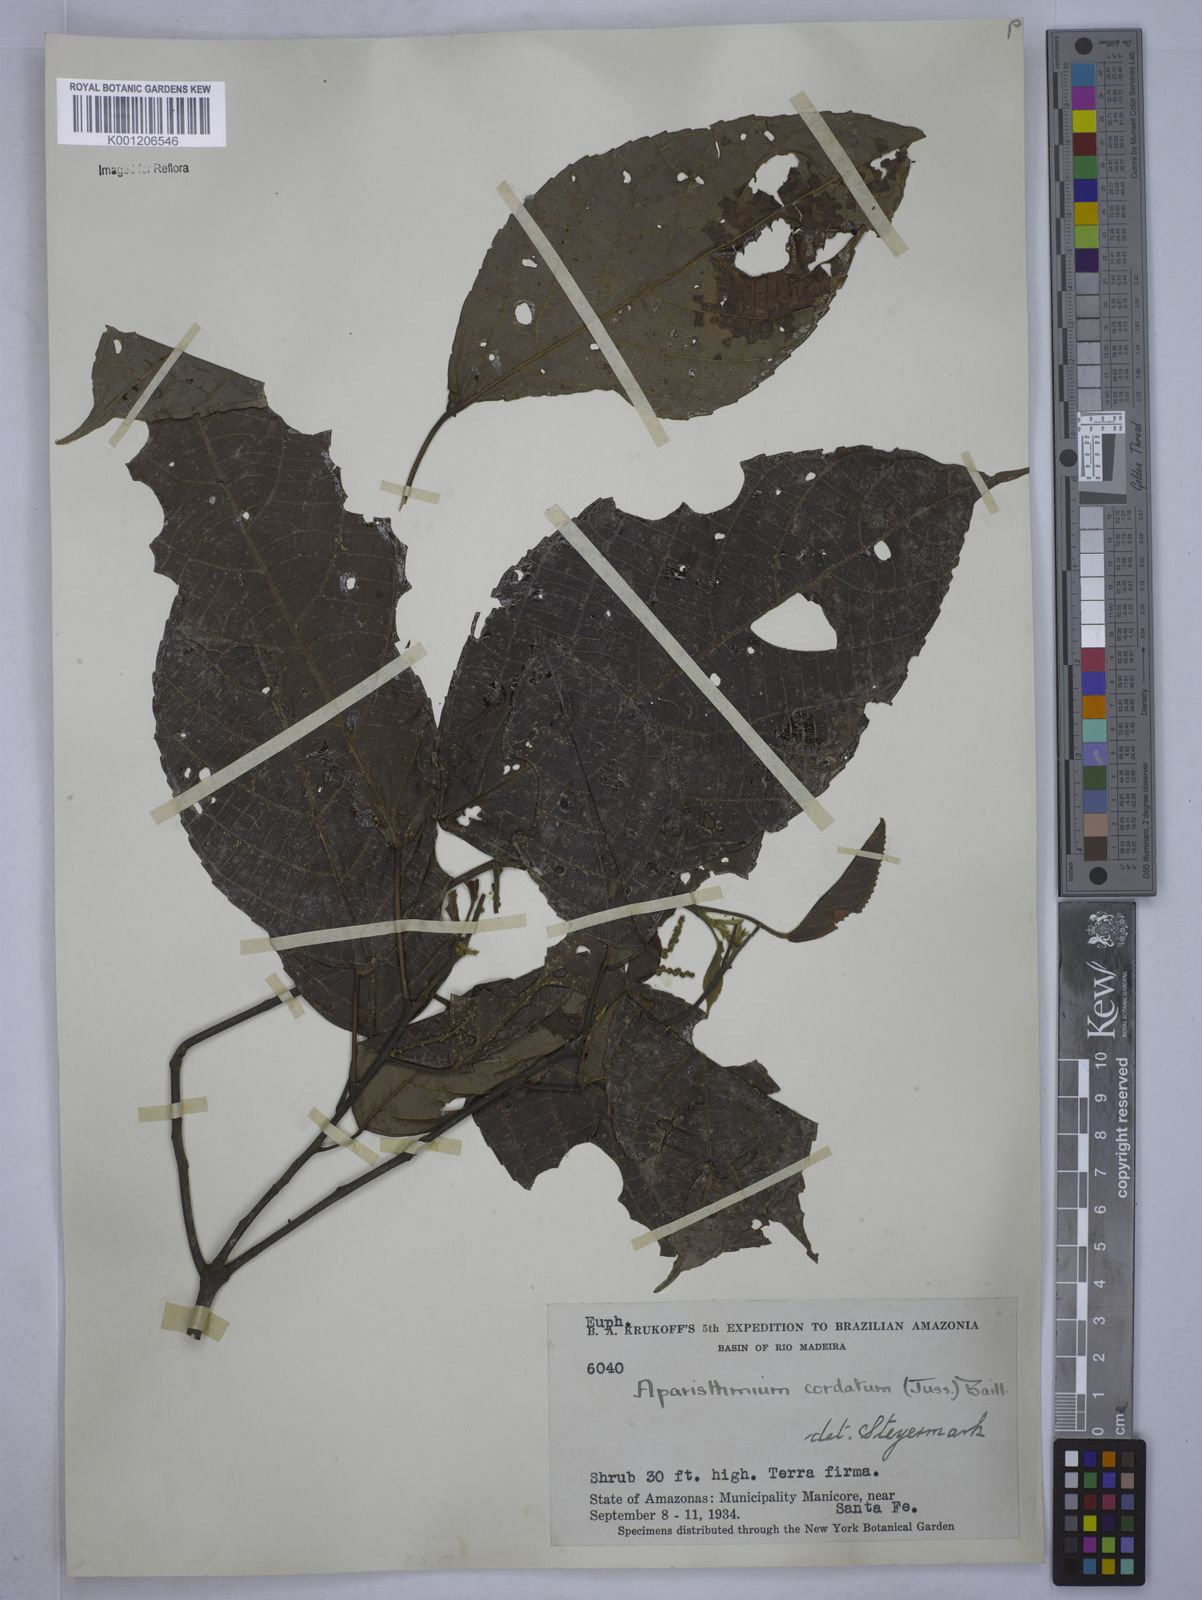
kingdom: Plantae
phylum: Tracheophyta
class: Magnoliopsida
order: Malpighiales
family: Euphorbiaceae
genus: Aparisthmium
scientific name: Aparisthmium cordatum
